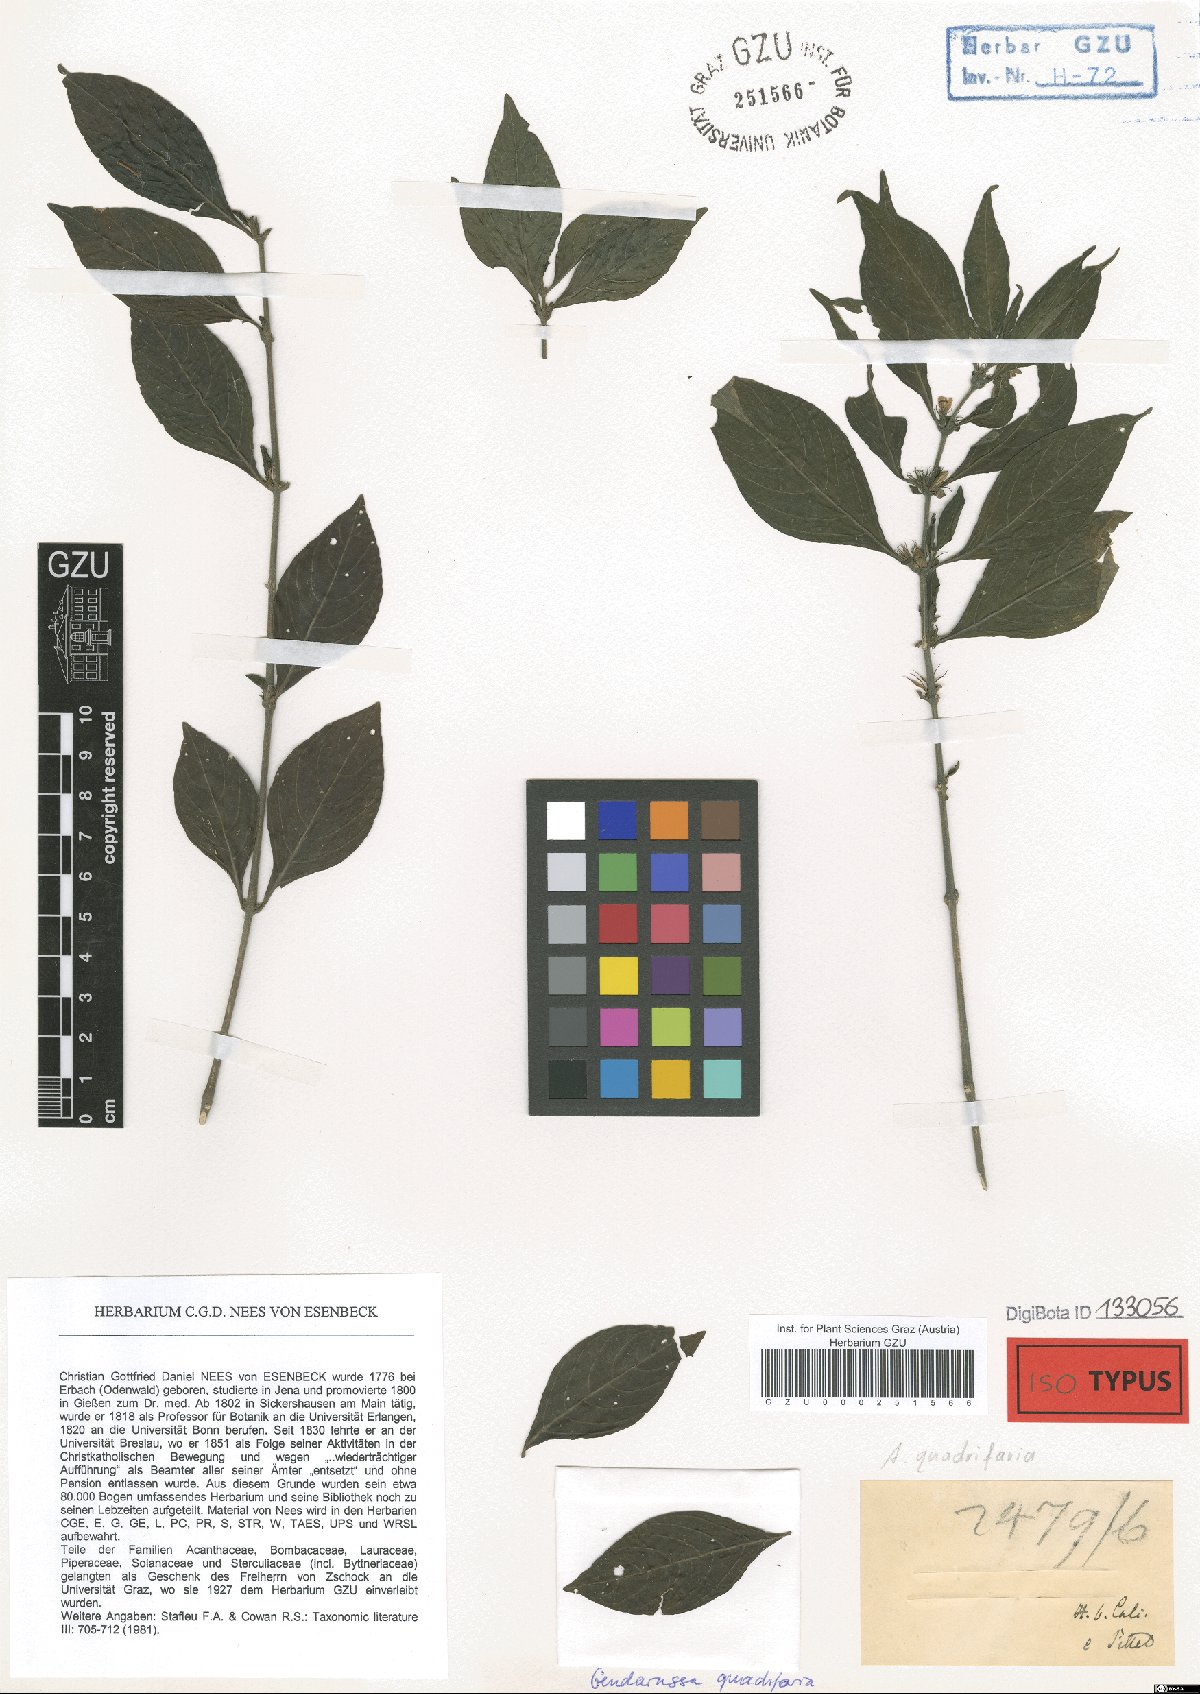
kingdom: Plantae
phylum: Tracheophyta
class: Magnoliopsida
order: Lamiales
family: Acanthaceae
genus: Justicia
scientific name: Justicia quadrifaria
